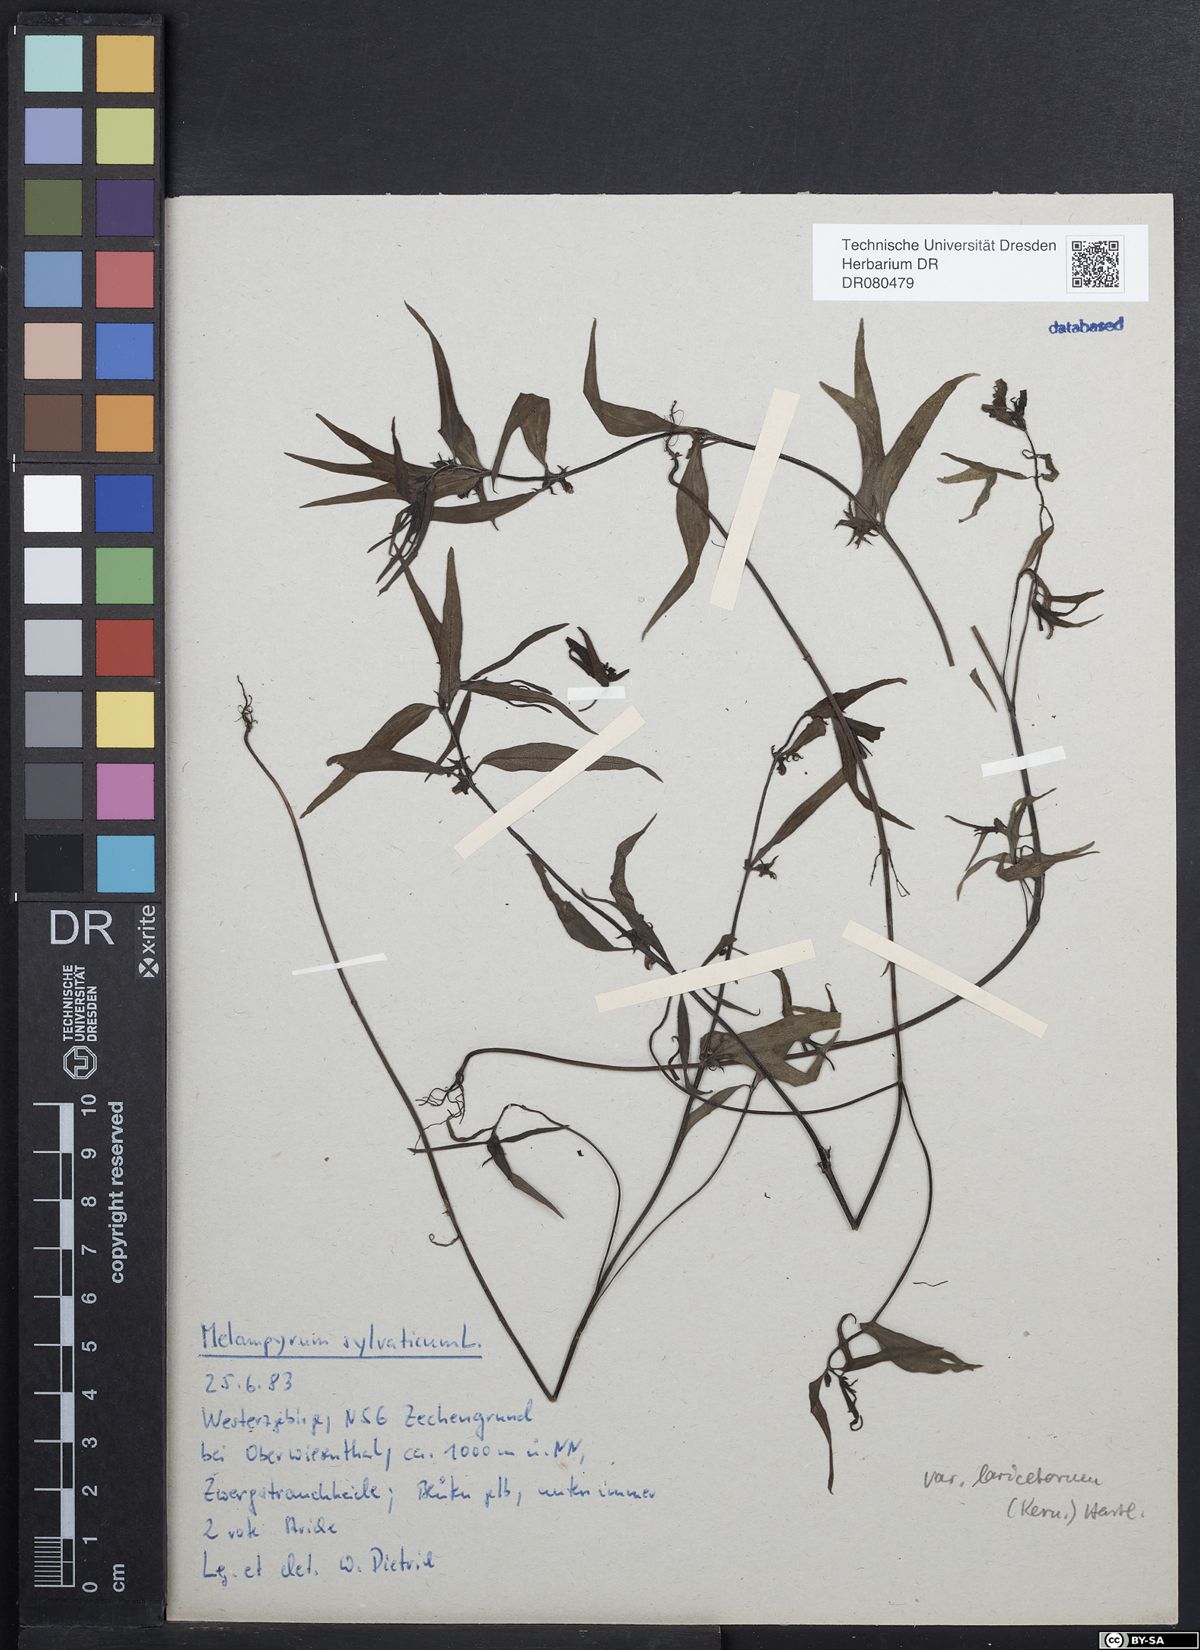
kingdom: Plantae
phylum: Tracheophyta
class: Magnoliopsida
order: Lamiales
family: Orobanchaceae
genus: Melampyrum
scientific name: Melampyrum sylvaticum
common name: Small cow-wheat
